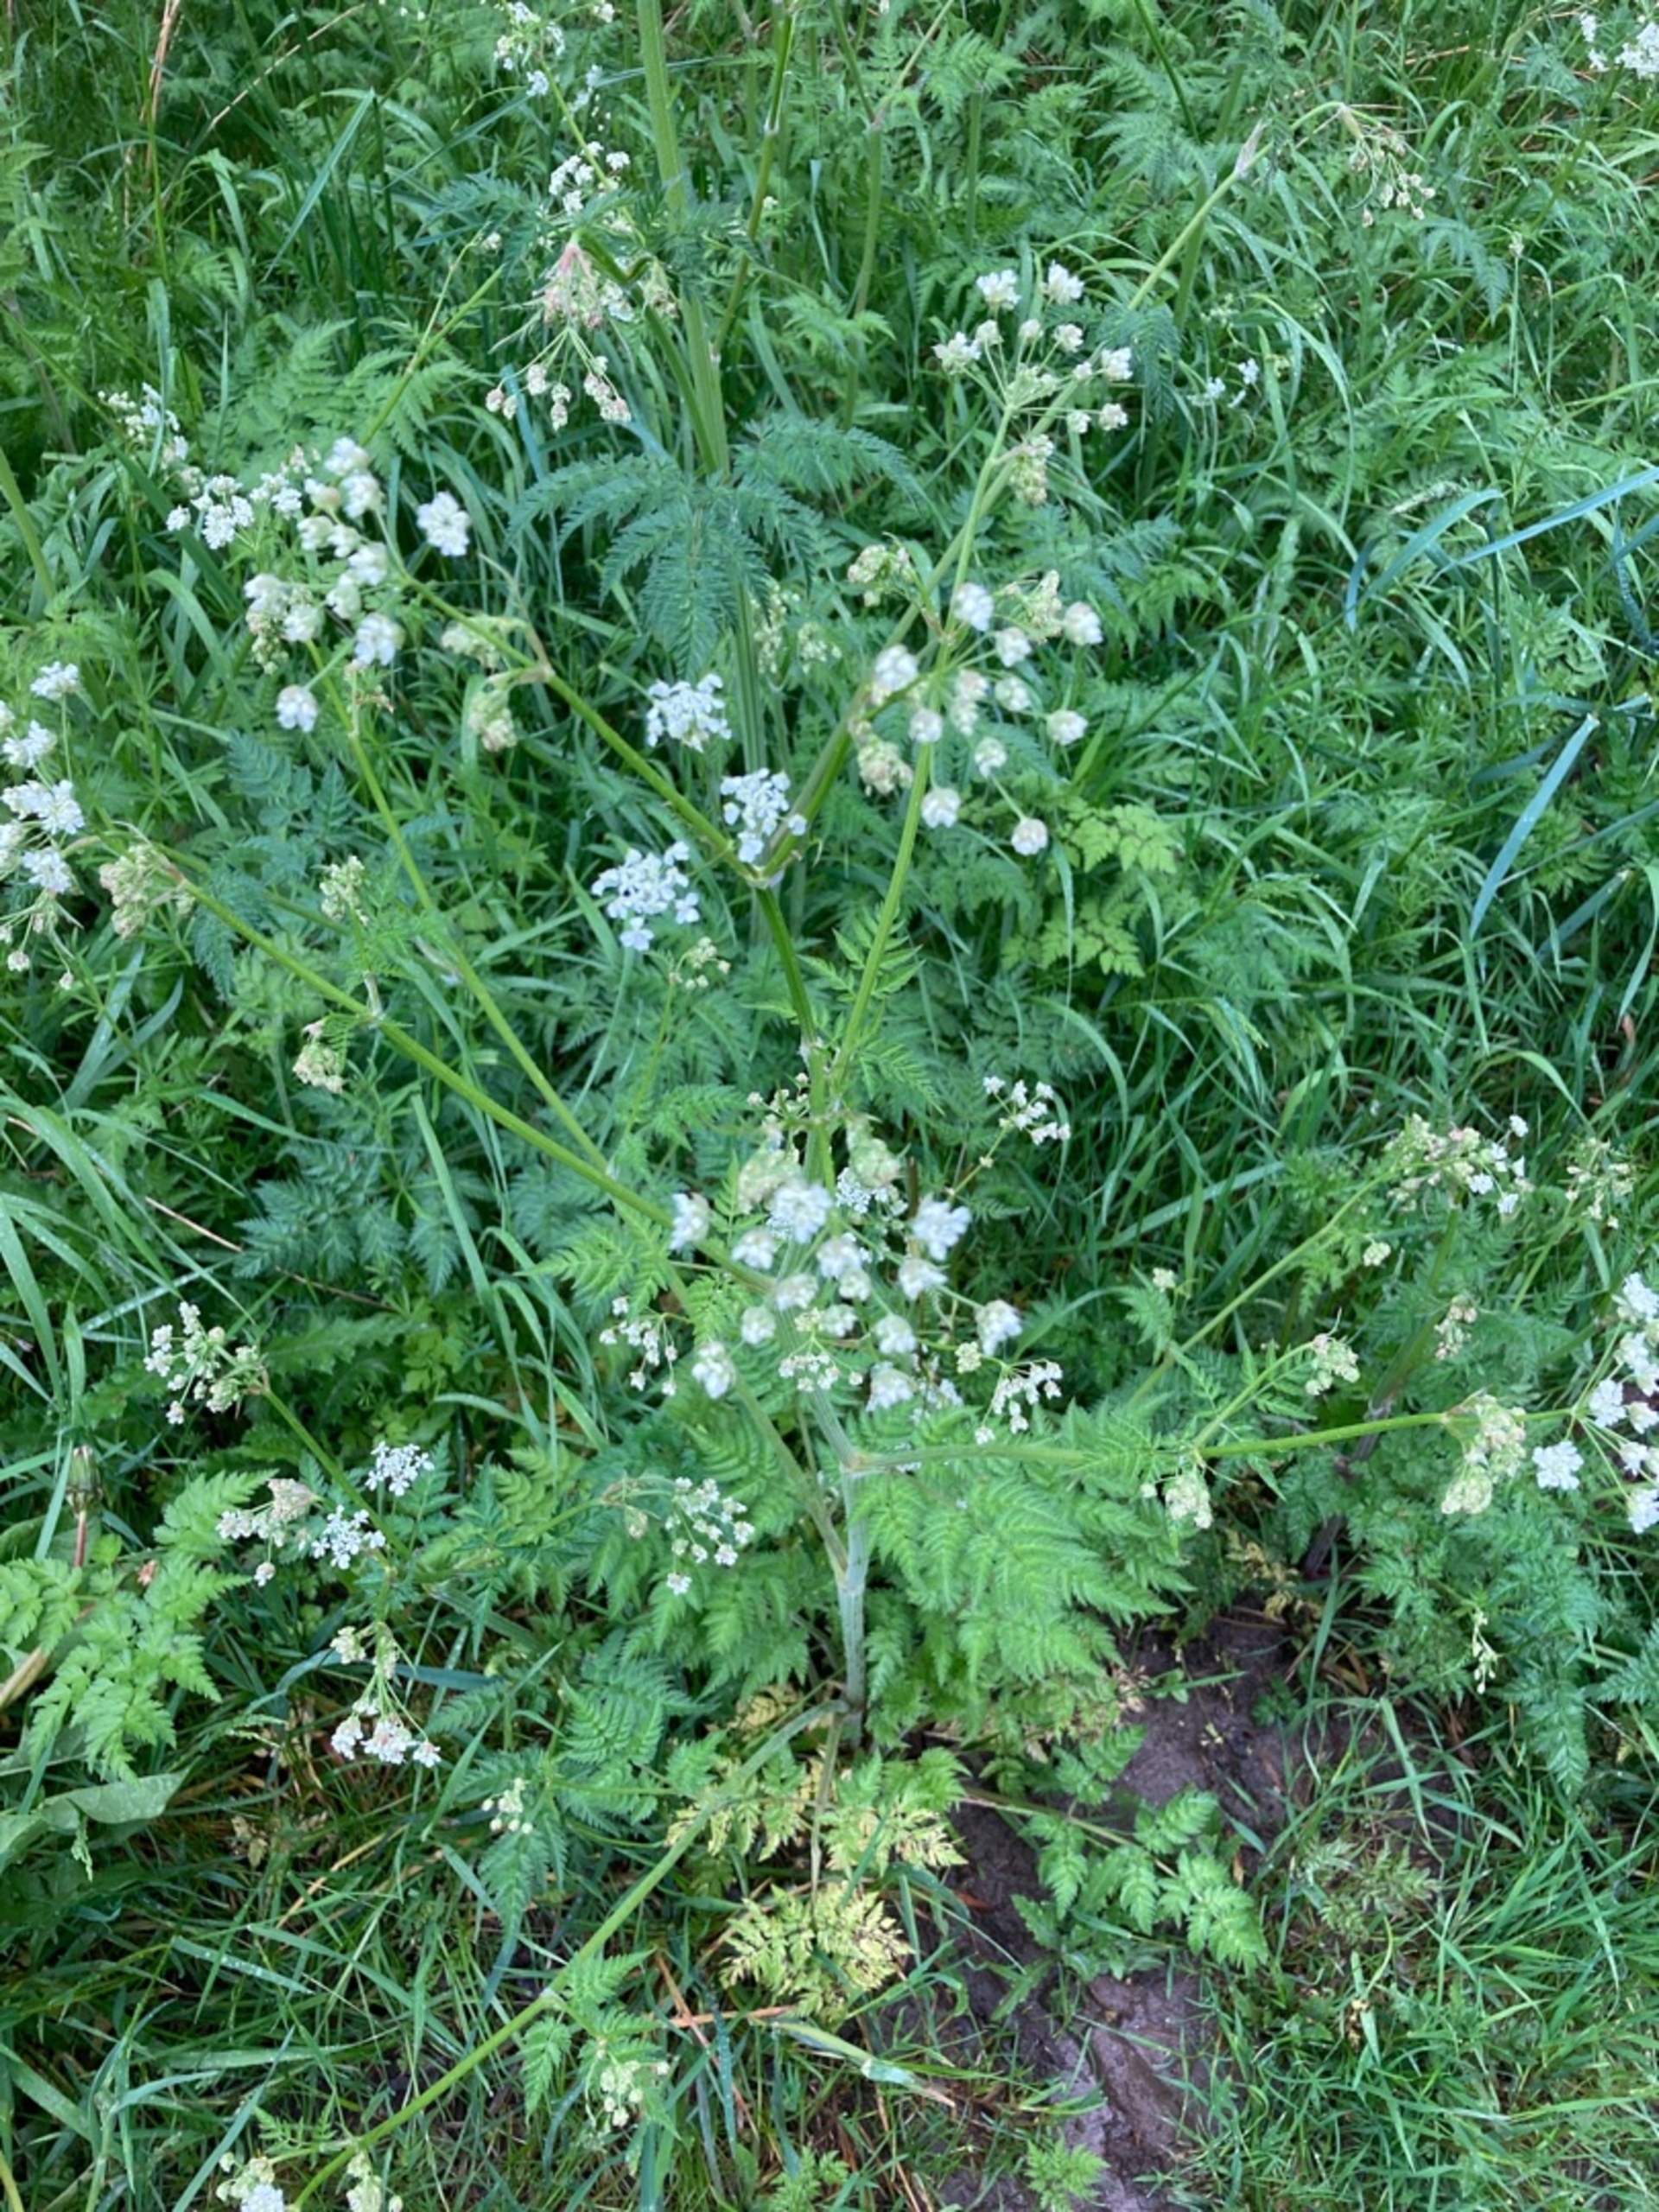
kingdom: Plantae
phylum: Tracheophyta
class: Magnoliopsida
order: Apiales
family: Apiaceae
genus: Anthriscus
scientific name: Anthriscus sylvestris
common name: Vild kørvel
